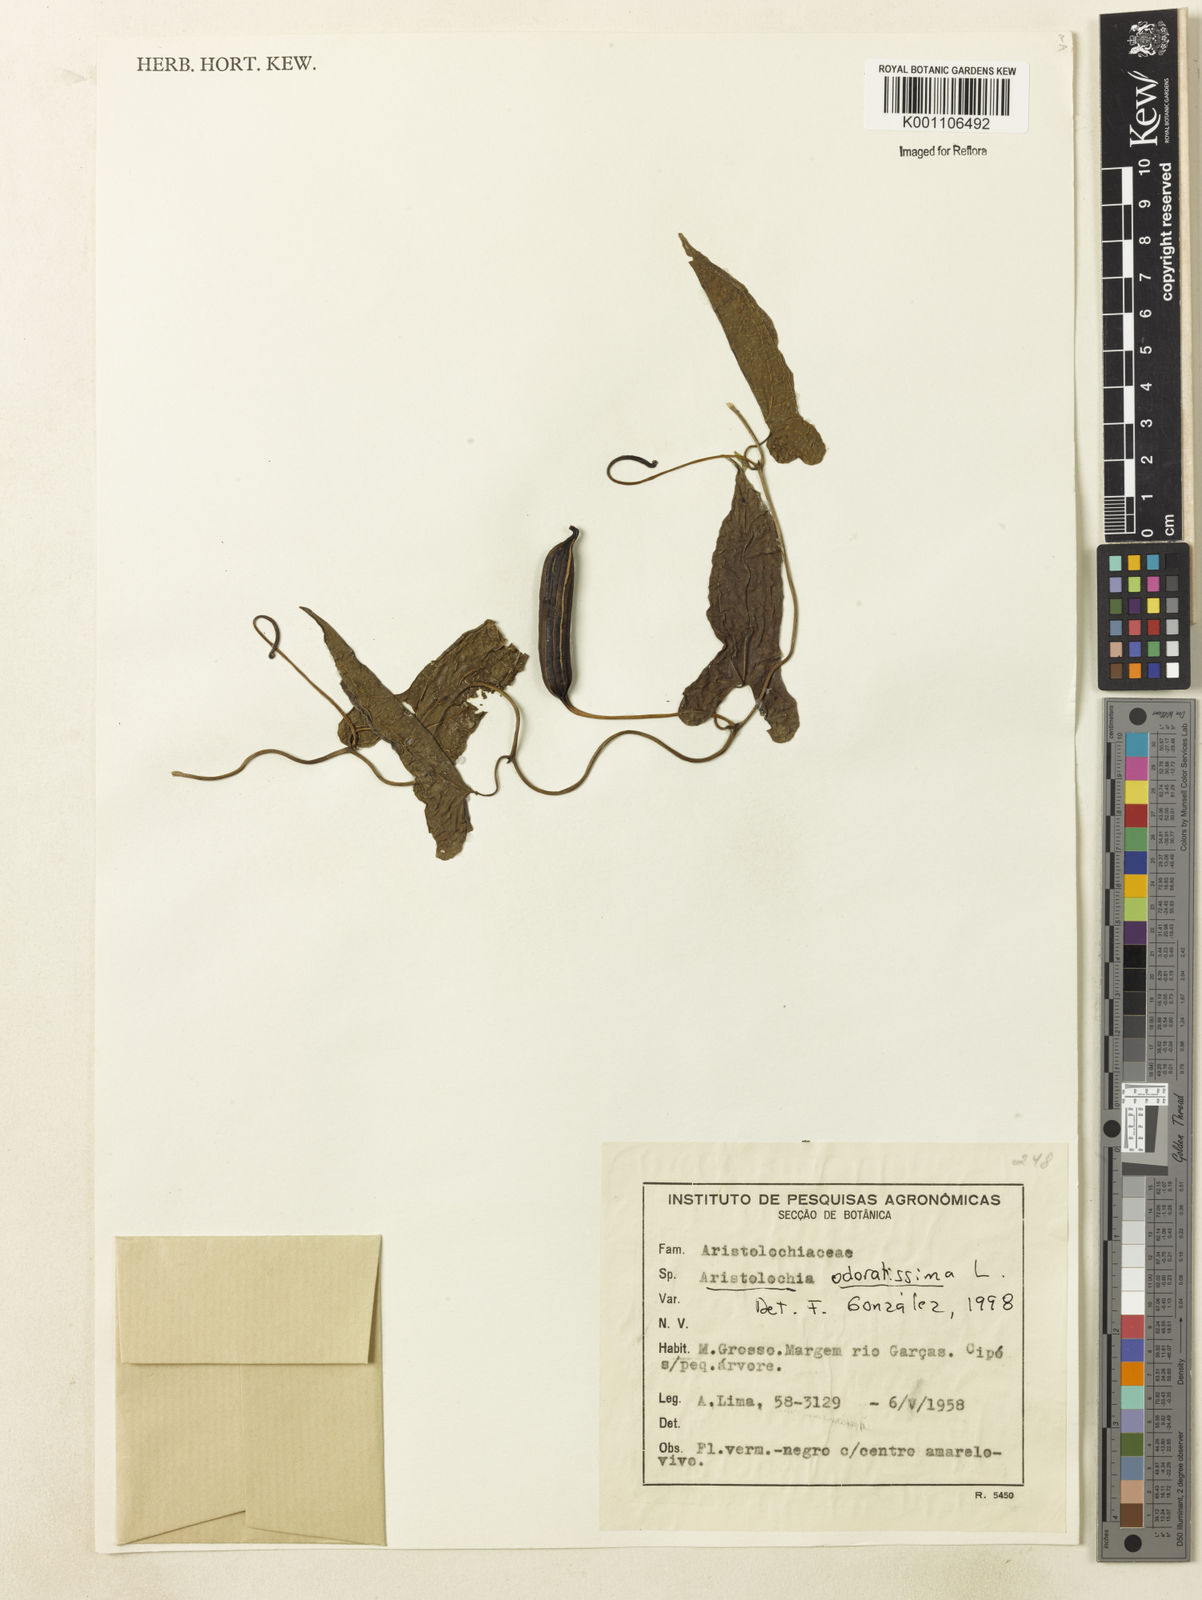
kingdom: Plantae
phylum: Tracheophyta
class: Magnoliopsida
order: Piperales
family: Aristolochiaceae
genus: Aristolochia
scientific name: Aristolochia odoratissima
